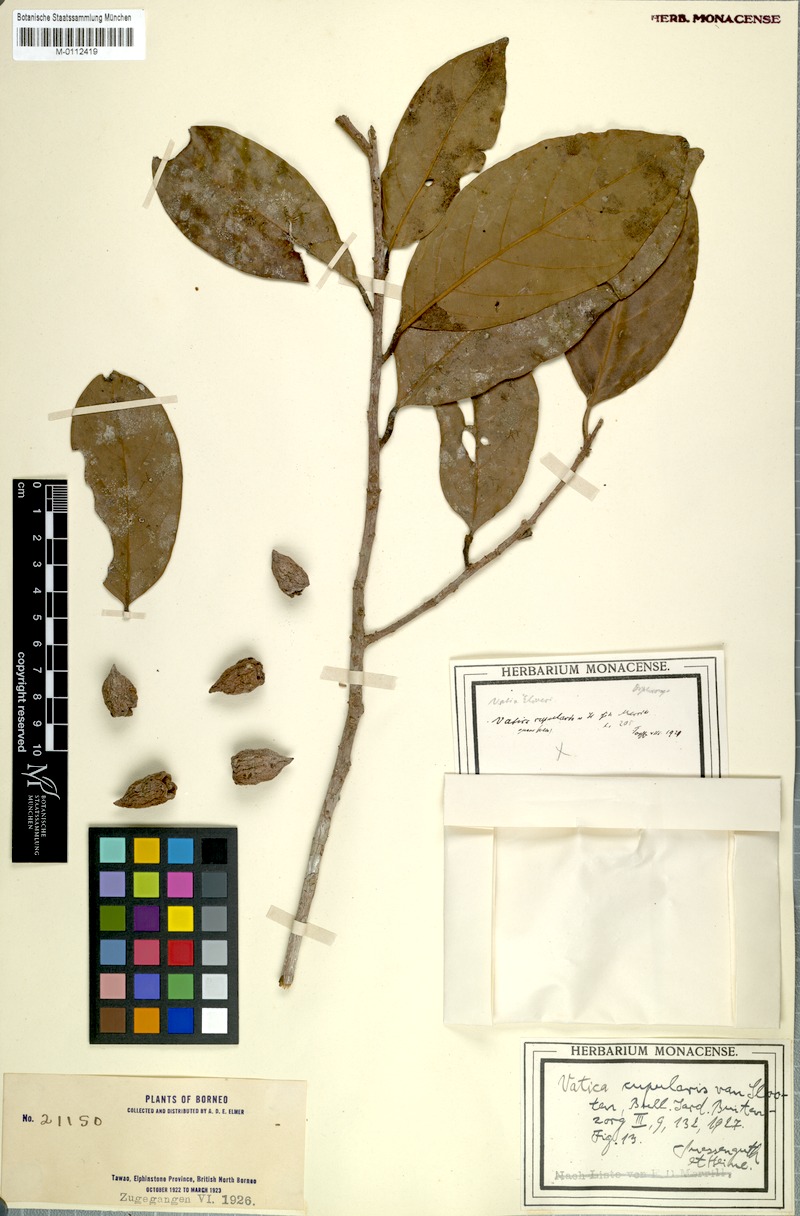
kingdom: Plantae
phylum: Tracheophyta
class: Magnoliopsida
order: Malvales
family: Dipterocarpaceae
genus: Vatica
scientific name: Vatica umbonata
